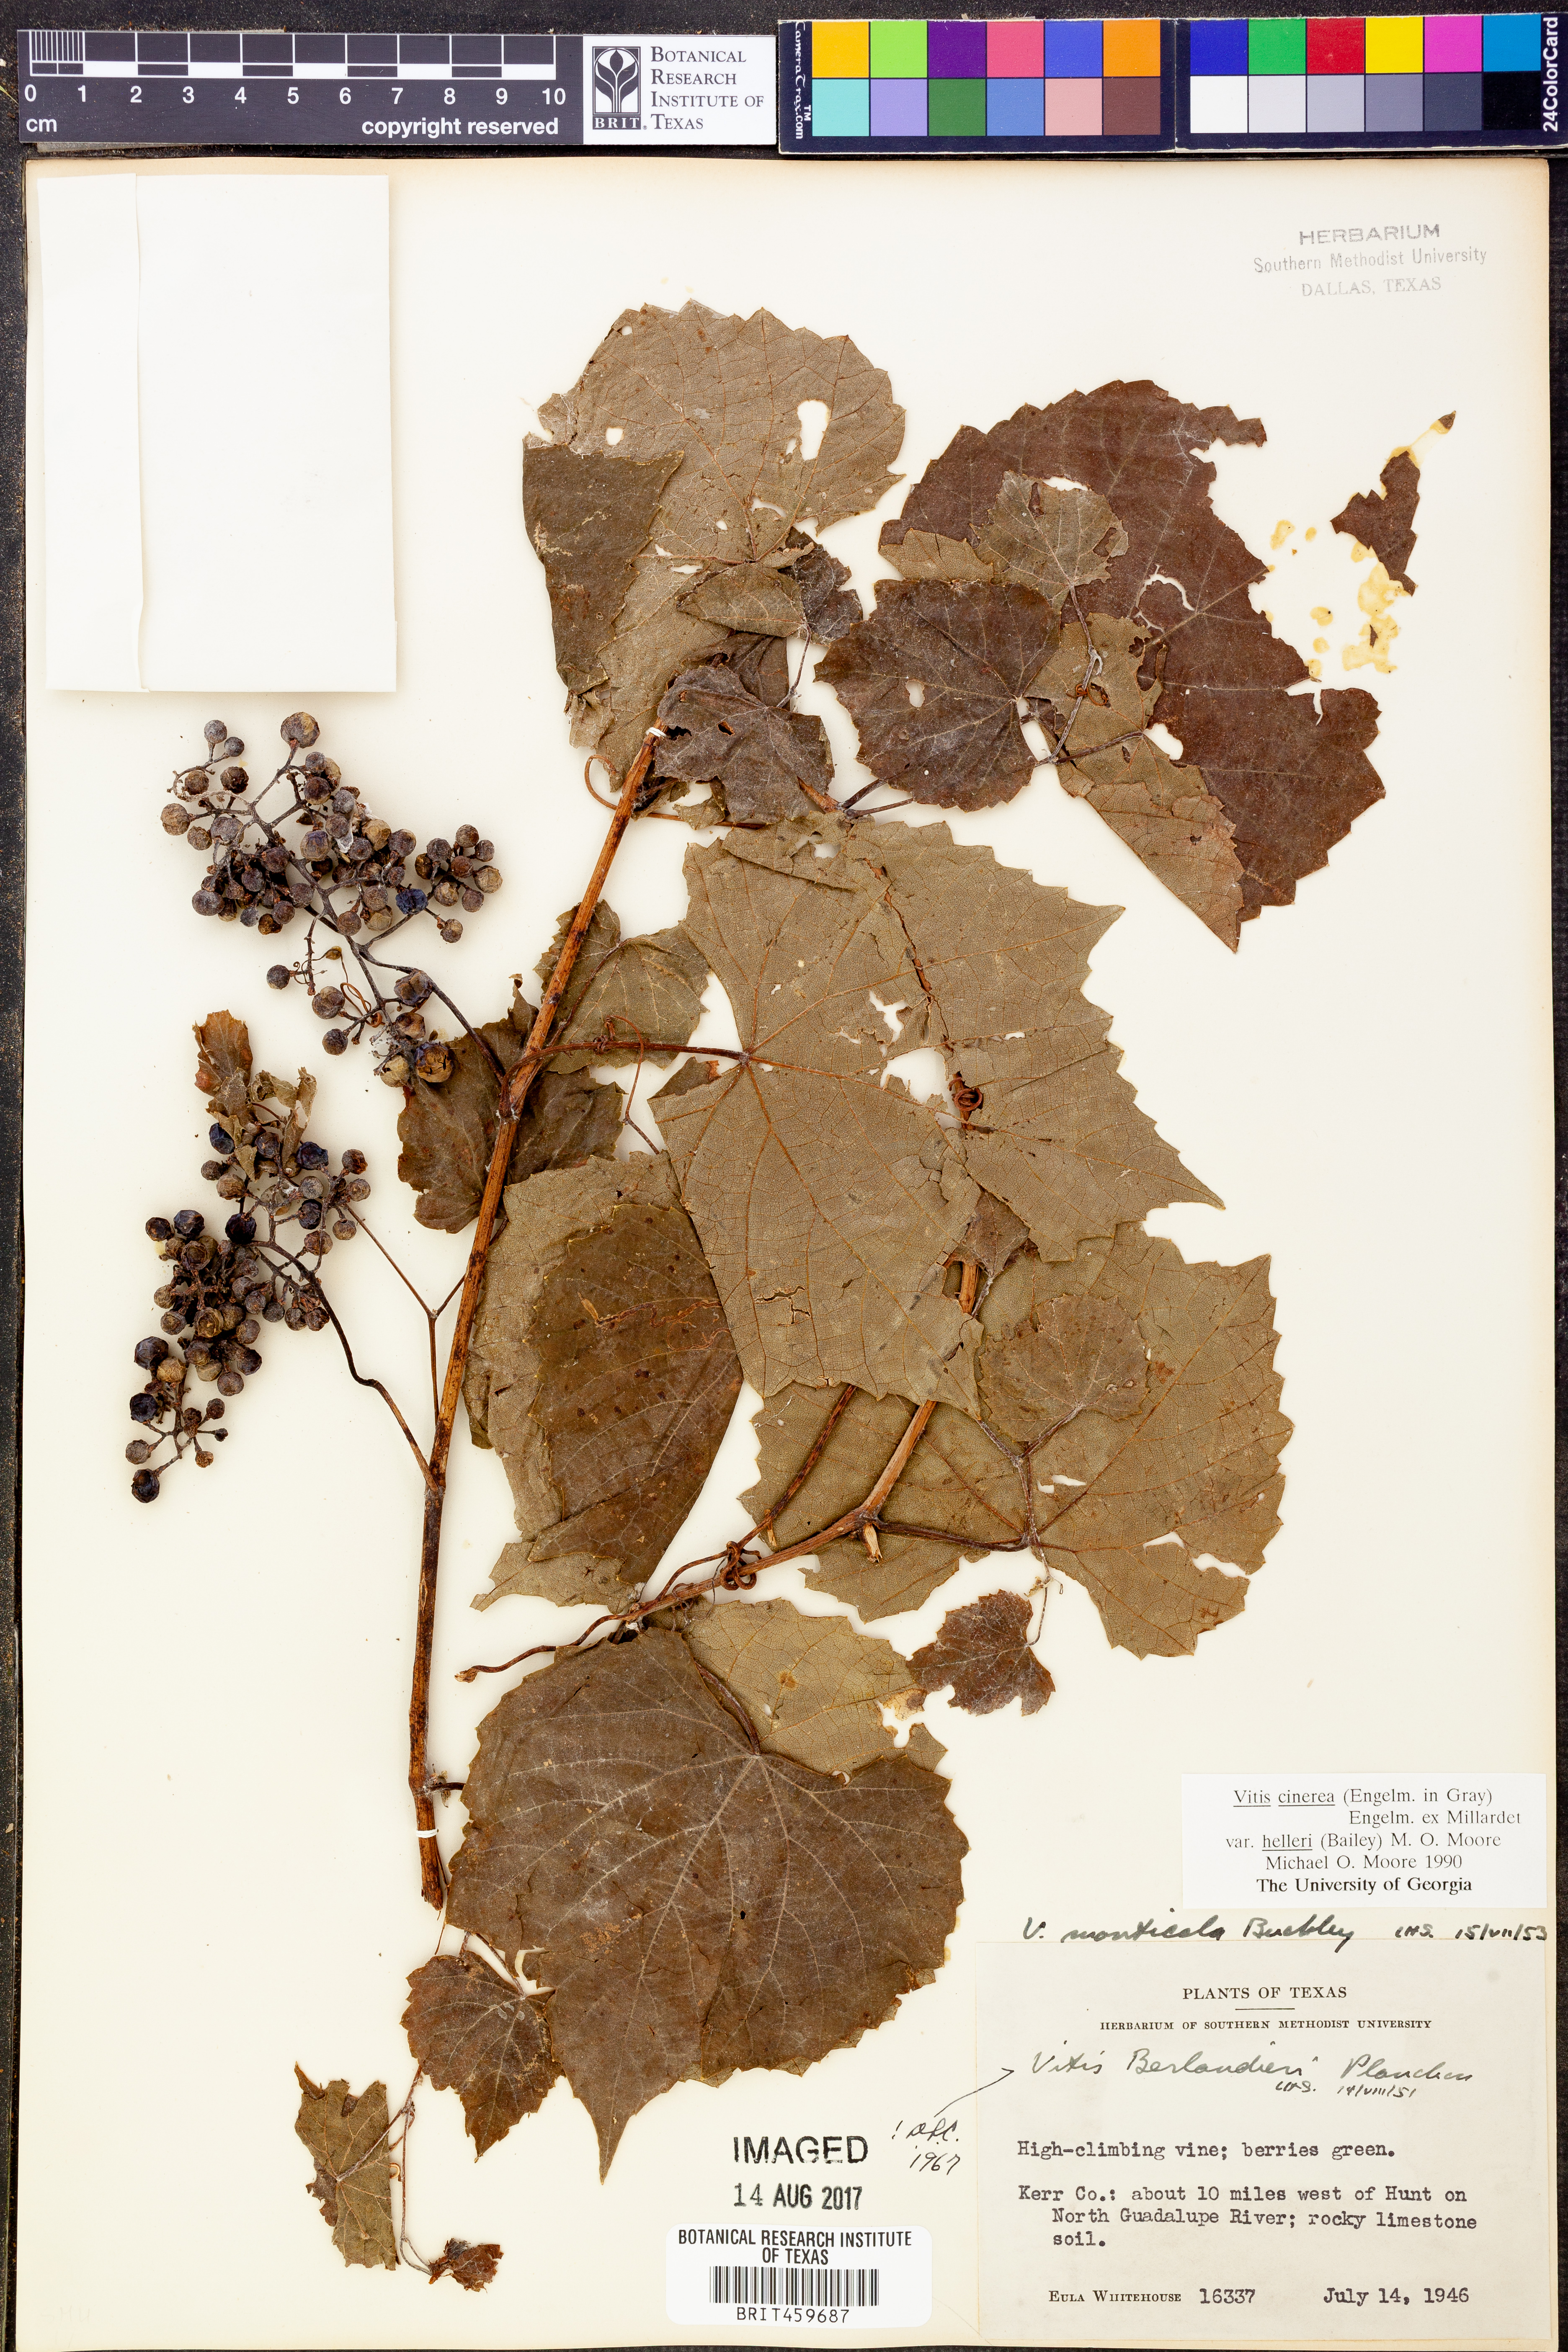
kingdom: Plantae
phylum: Tracheophyta
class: Magnoliopsida
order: Vitales
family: Vitaceae
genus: Vitis
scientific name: Vitis cinerea
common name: Ashy grape
